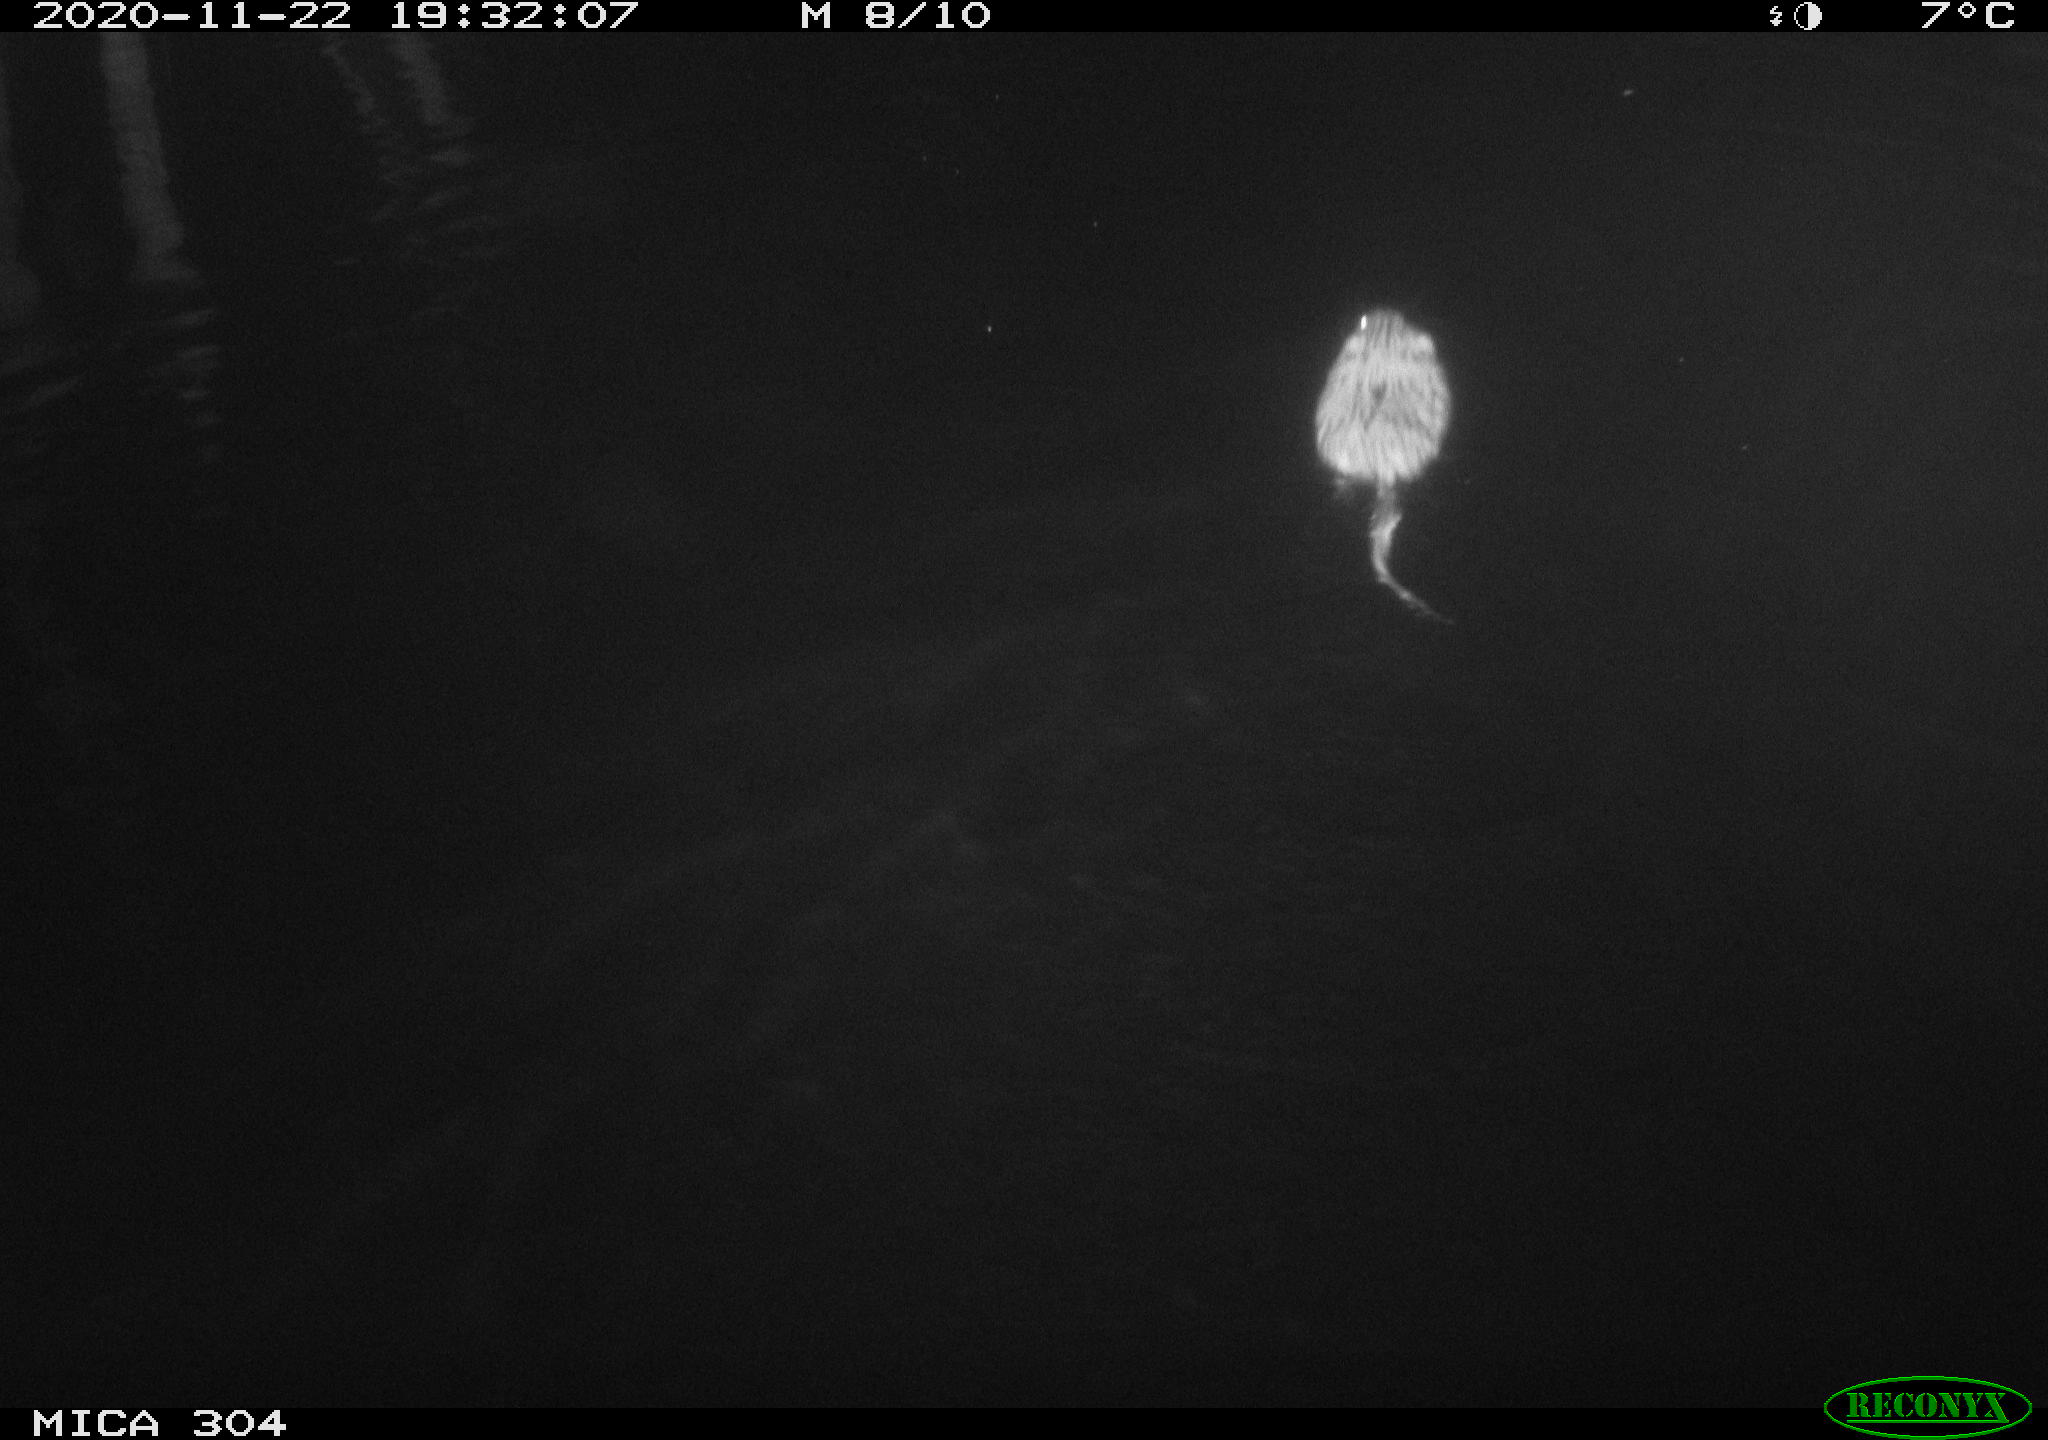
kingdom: Animalia
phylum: Chordata
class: Mammalia
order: Rodentia
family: Cricetidae
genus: Ondatra
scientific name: Ondatra zibethicus
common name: Muskrat
